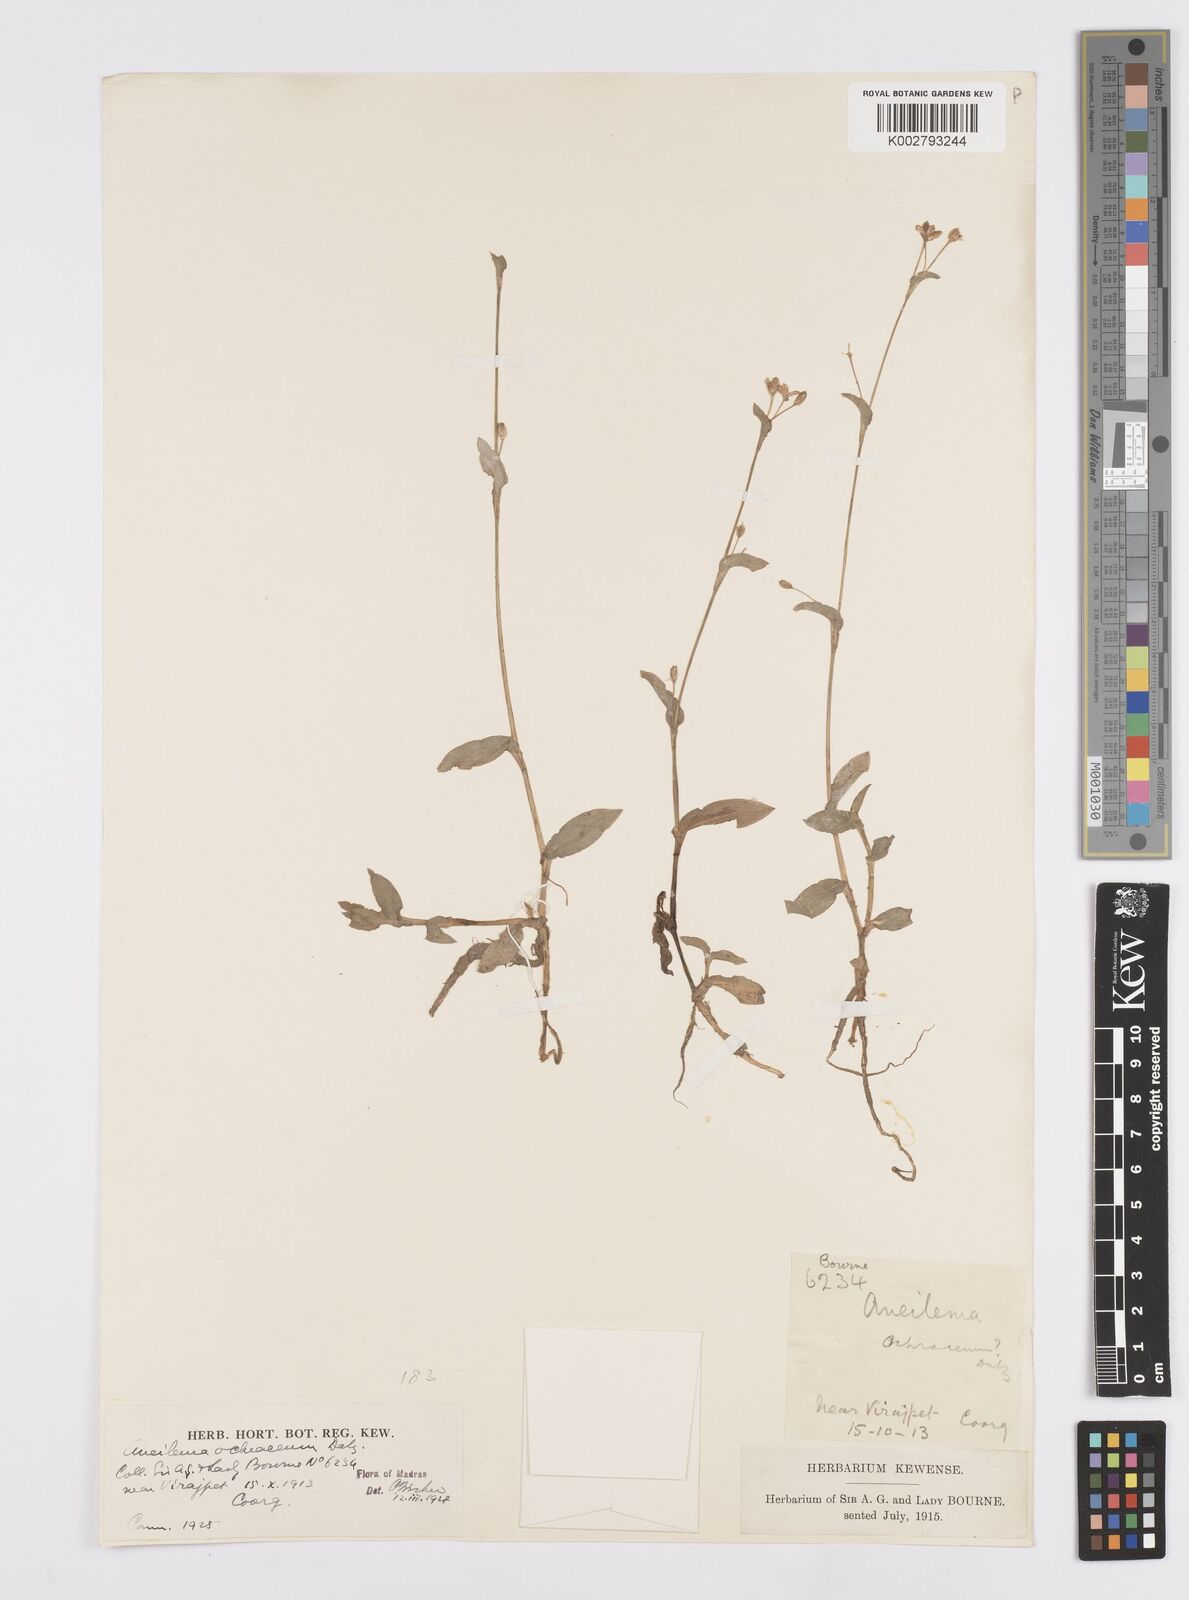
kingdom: Plantae
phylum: Tracheophyta
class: Liliopsida
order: Commelinales
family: Commelinaceae
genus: Murdannia
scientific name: Murdannia
